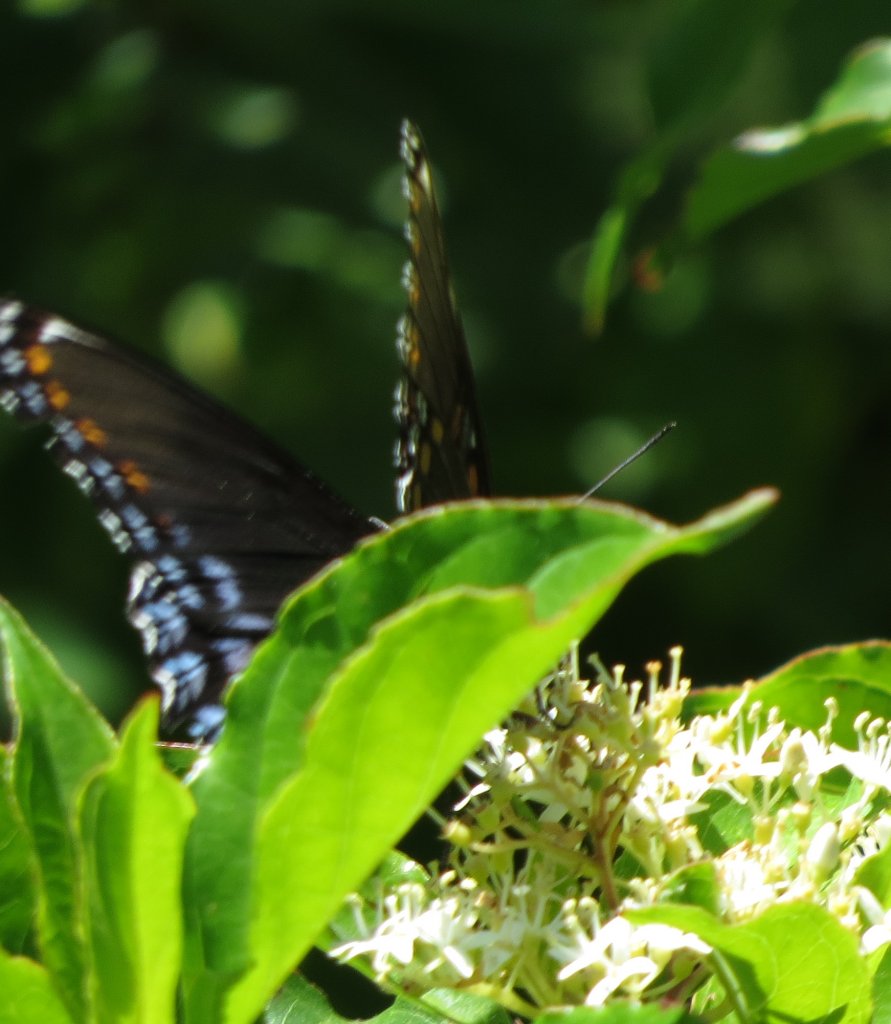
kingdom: Animalia
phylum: Arthropoda
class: Insecta
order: Lepidoptera
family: Nymphalidae
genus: Limenitis
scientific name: Limenitis astyanax
